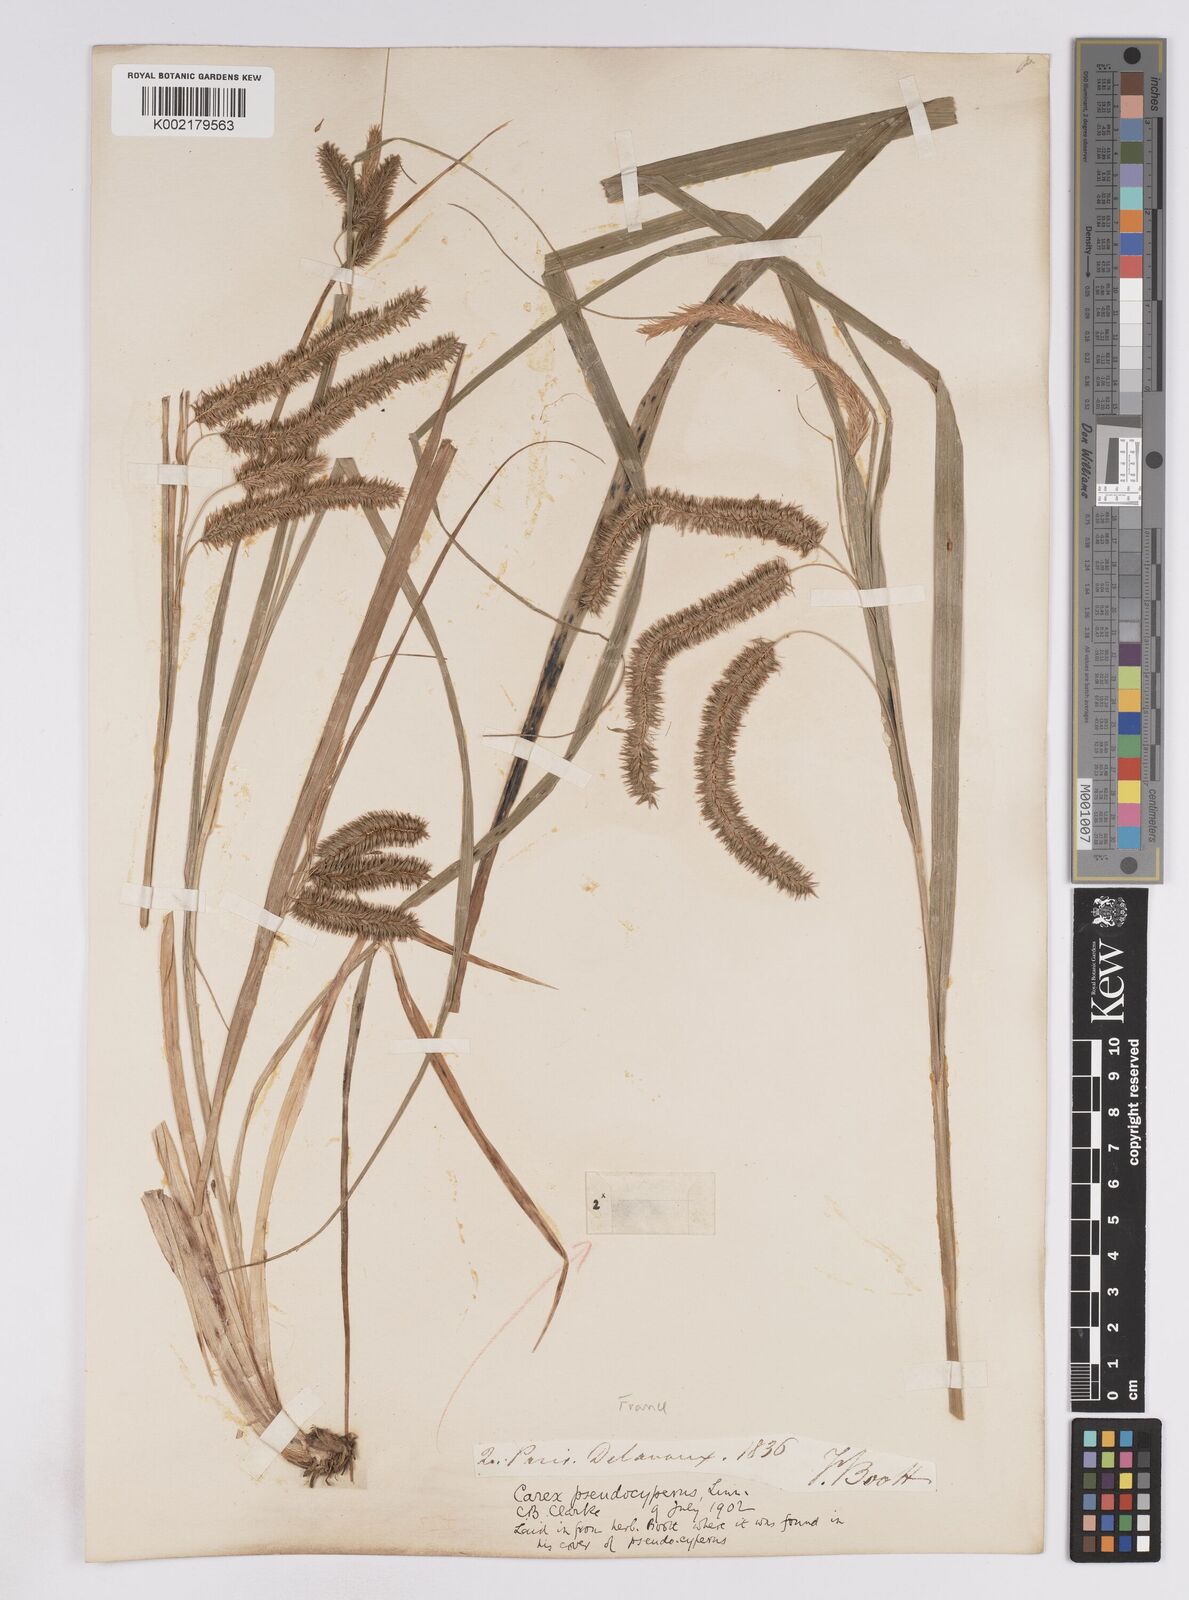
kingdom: Plantae
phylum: Tracheophyta
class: Liliopsida
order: Poales
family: Cyperaceae
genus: Carex
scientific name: Carex pseudocyperus
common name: Cyperus sedge
